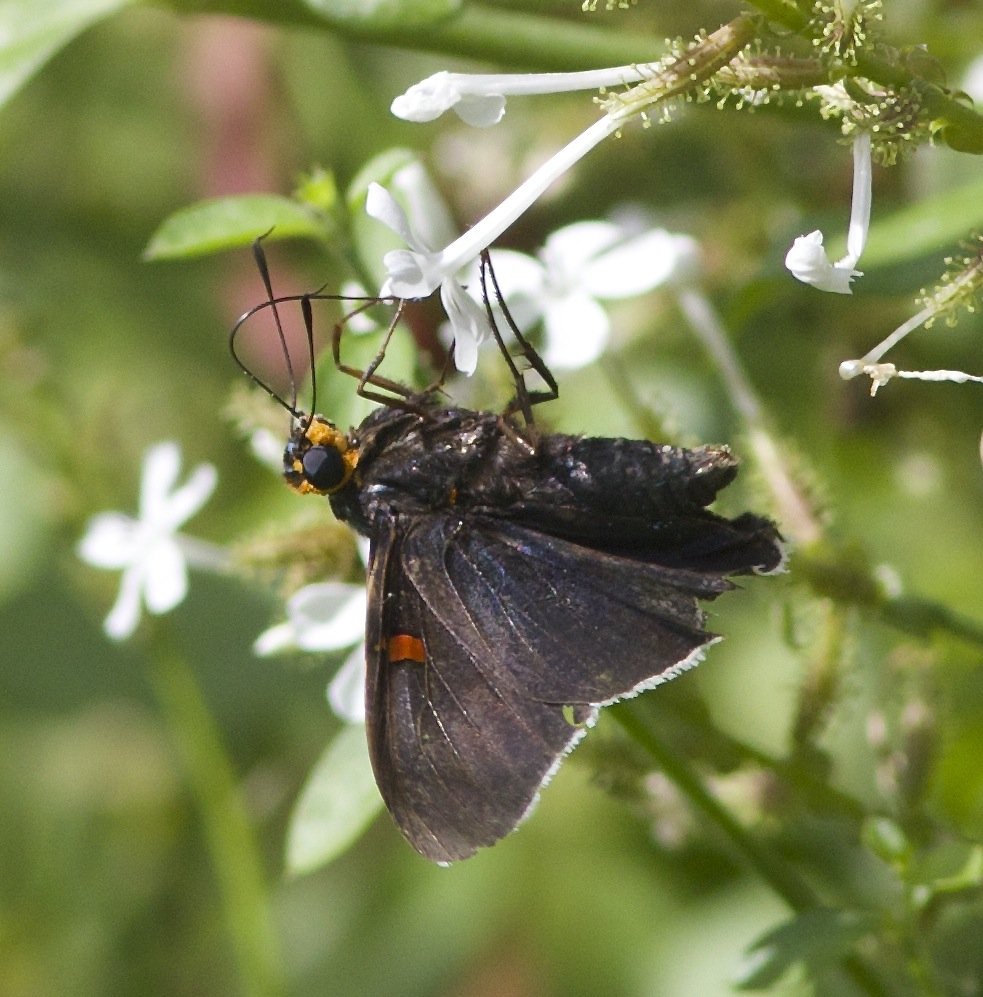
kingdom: Animalia
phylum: Arthropoda
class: Insecta
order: Lepidoptera
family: Hesperiidae
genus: Phocides
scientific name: Phocides polybius
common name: Guava Skipper
